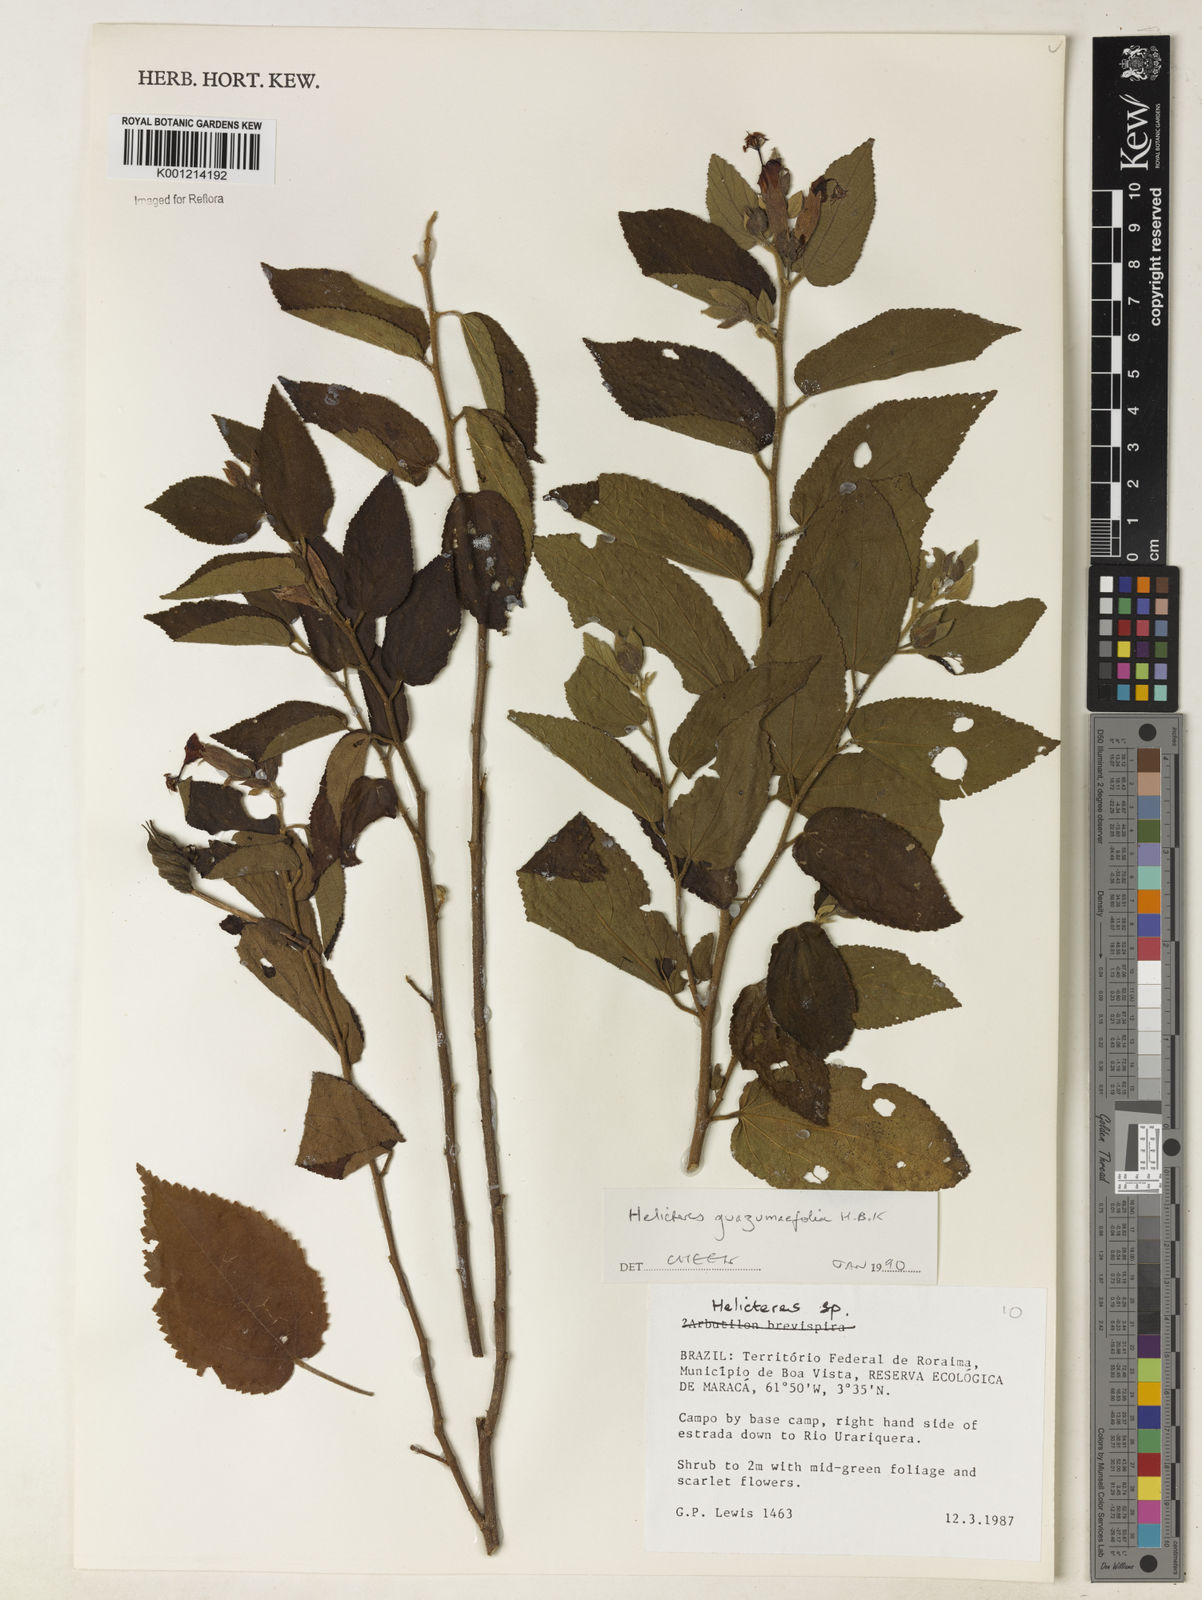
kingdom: Plantae
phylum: Tracheophyta
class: Magnoliopsida
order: Malvales
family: Malvaceae
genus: Helicteres
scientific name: Helicteres guazumifolia
